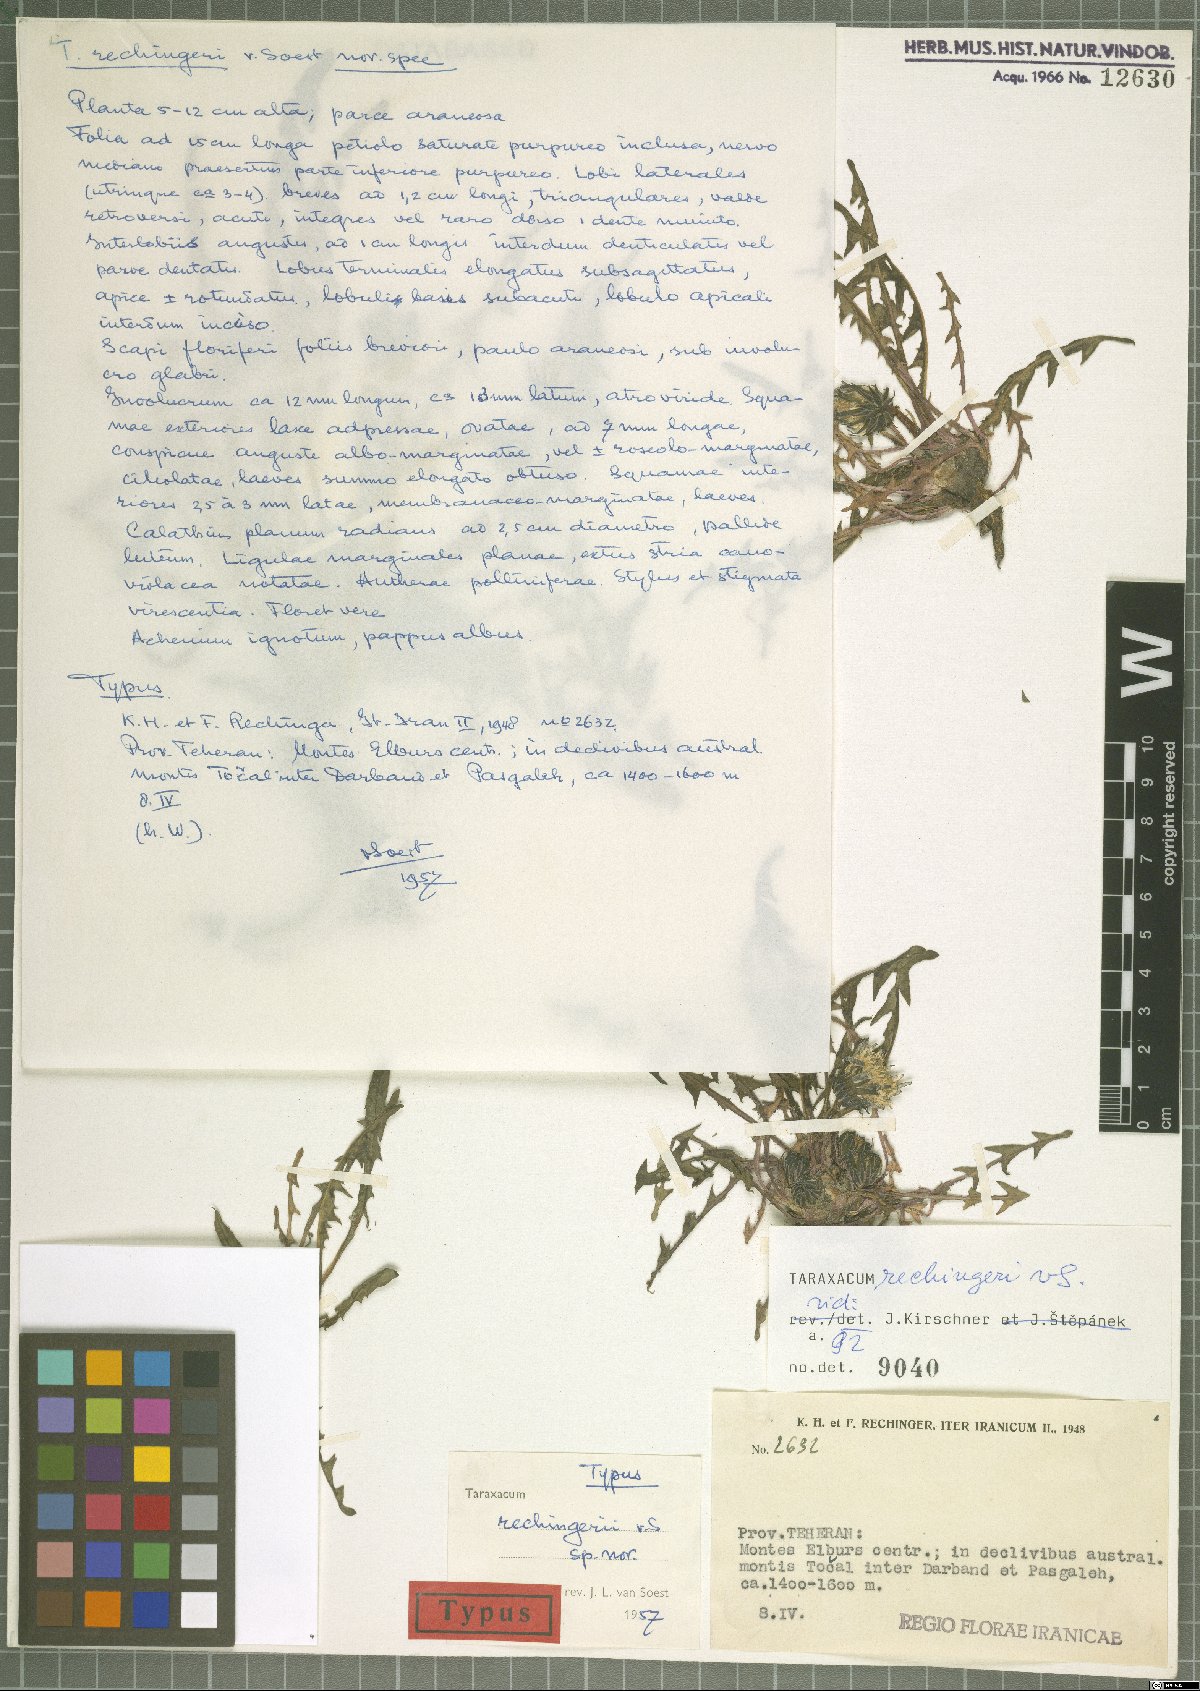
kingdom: Plantae
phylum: Tracheophyta
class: Magnoliopsida
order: Asterales
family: Asteraceae
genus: Taraxacum
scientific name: Taraxacum scaturiginosum
